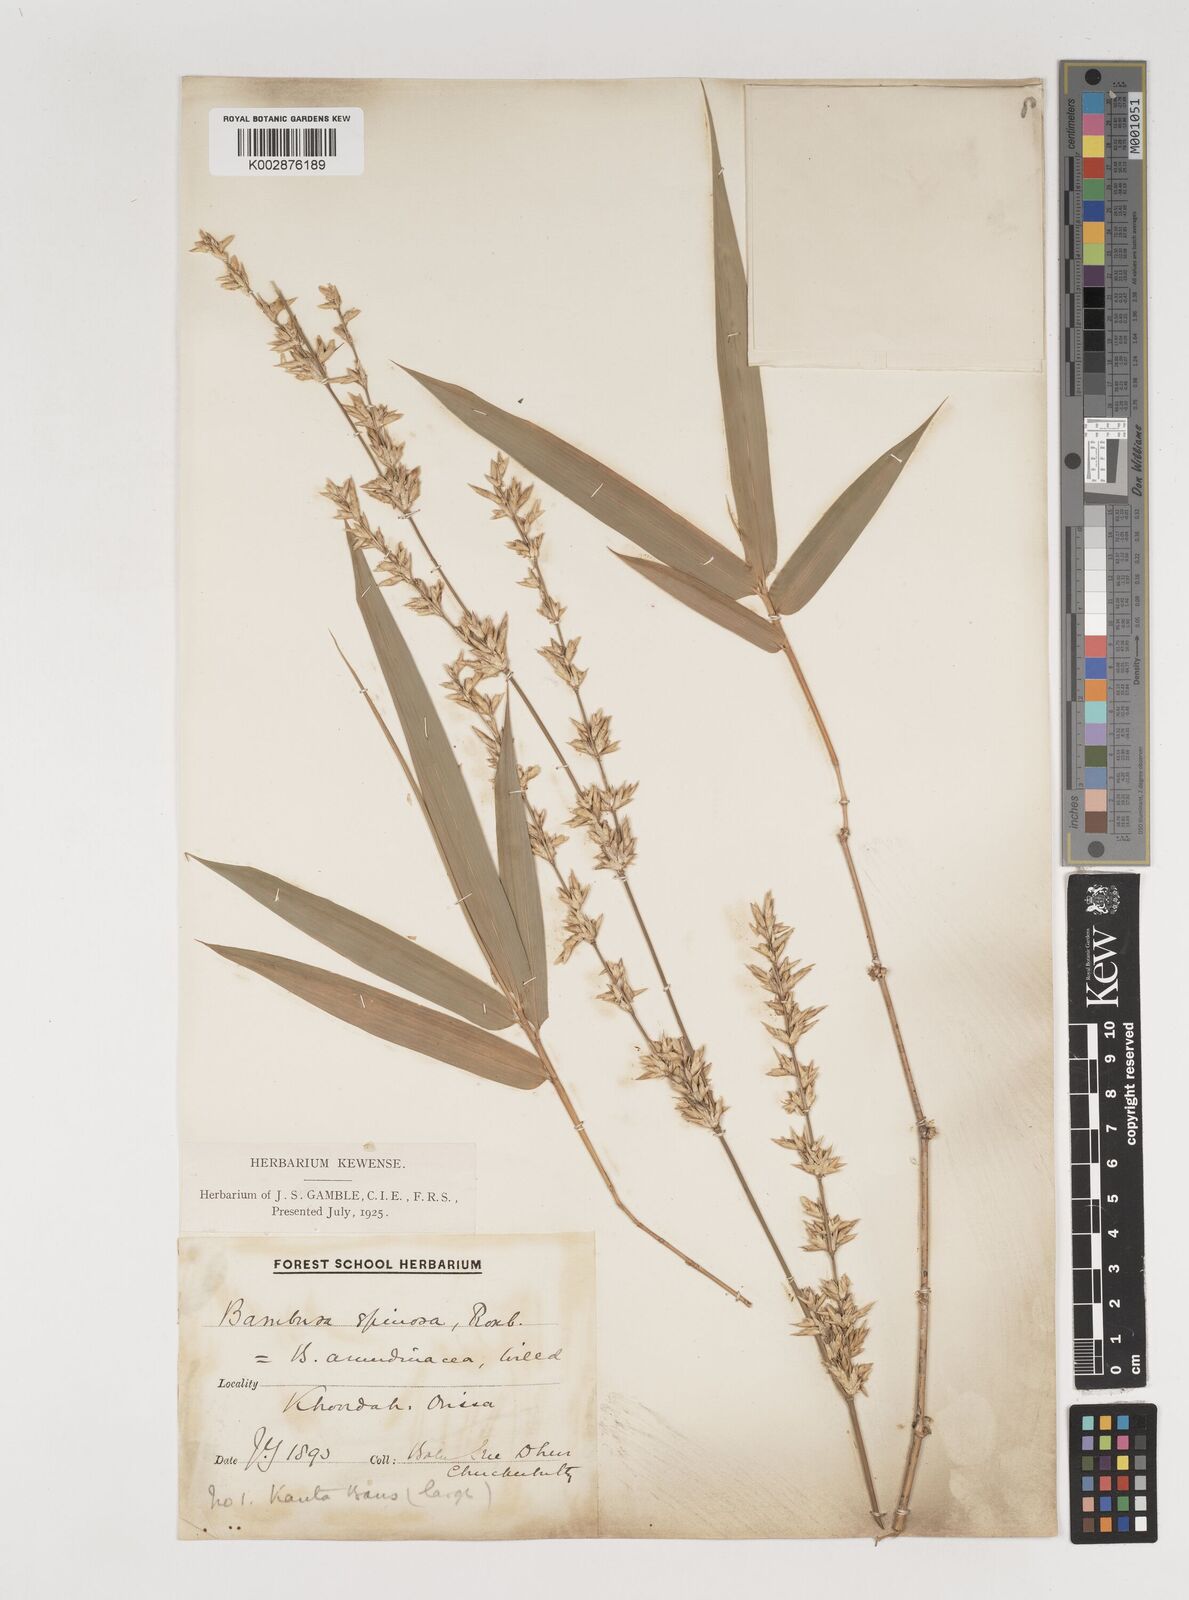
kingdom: Plantae
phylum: Tracheophyta
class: Liliopsida
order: Poales
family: Poaceae
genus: Bambusa
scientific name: Bambusa bambos
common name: Indian thorny bamboo
